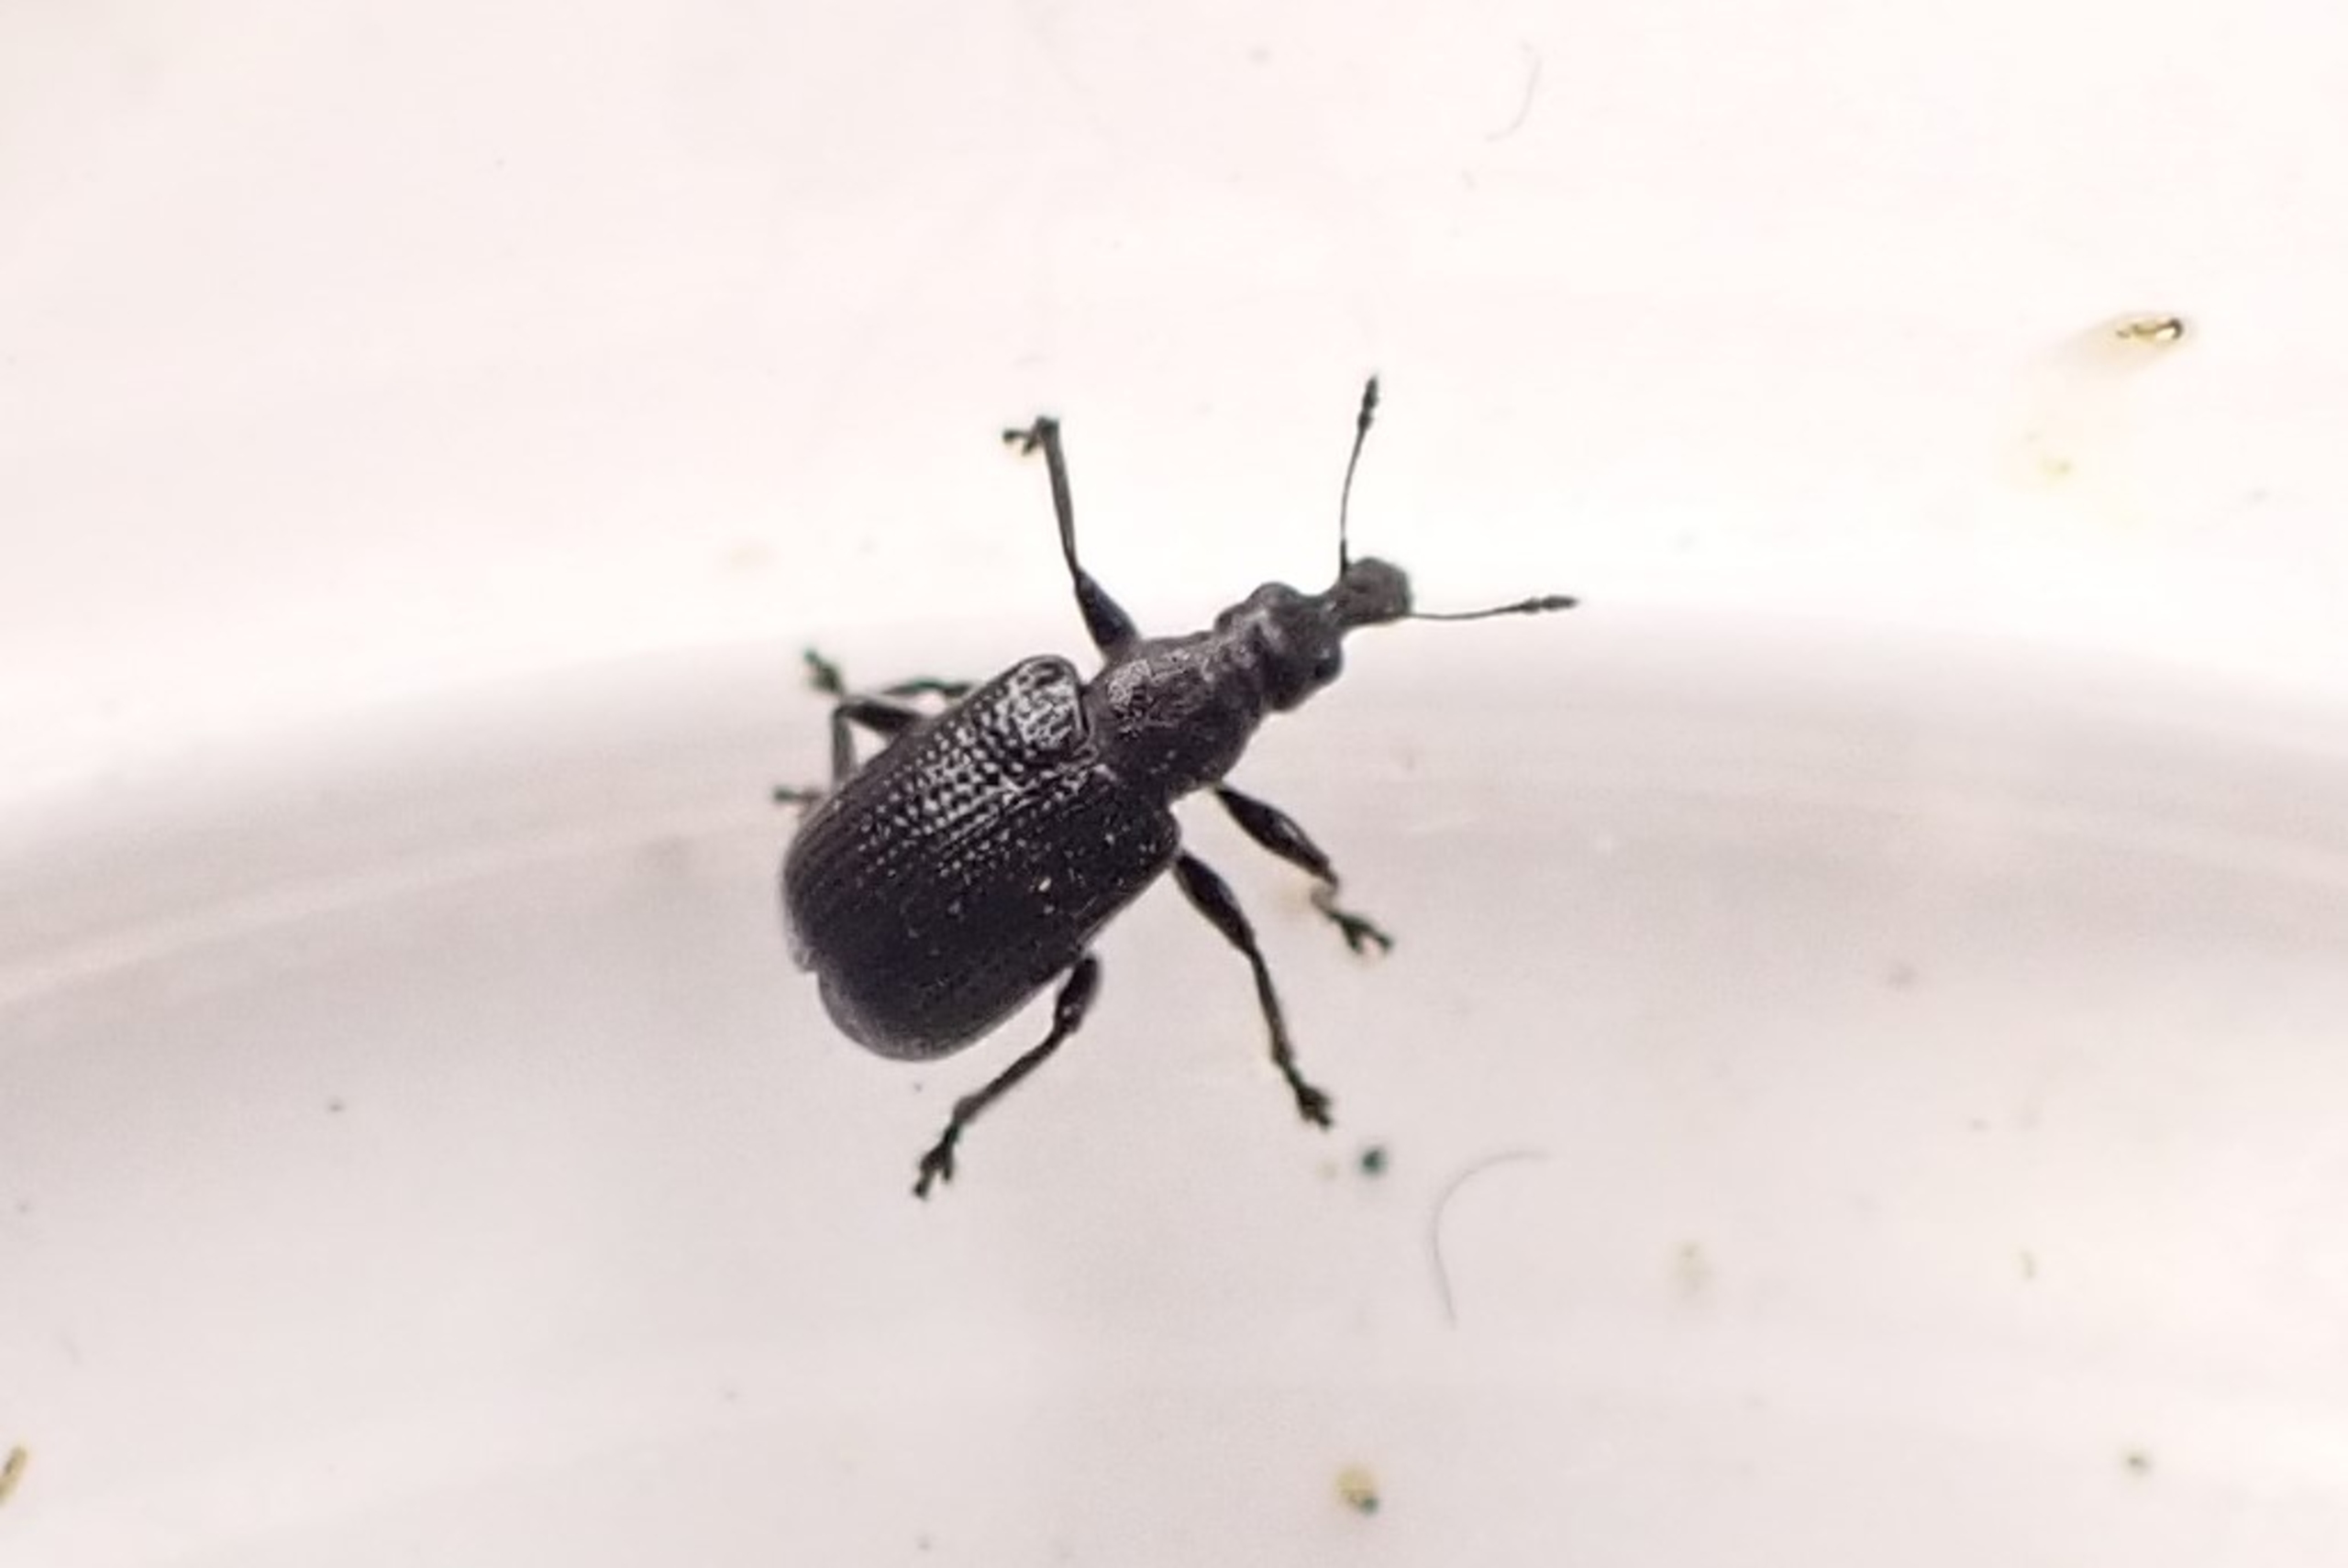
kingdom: Animalia
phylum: Arthropoda
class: Insecta
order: Coleoptera
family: Attelabidae
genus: Byctiscus
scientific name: Byctiscus betulae
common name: Birkebladruller
